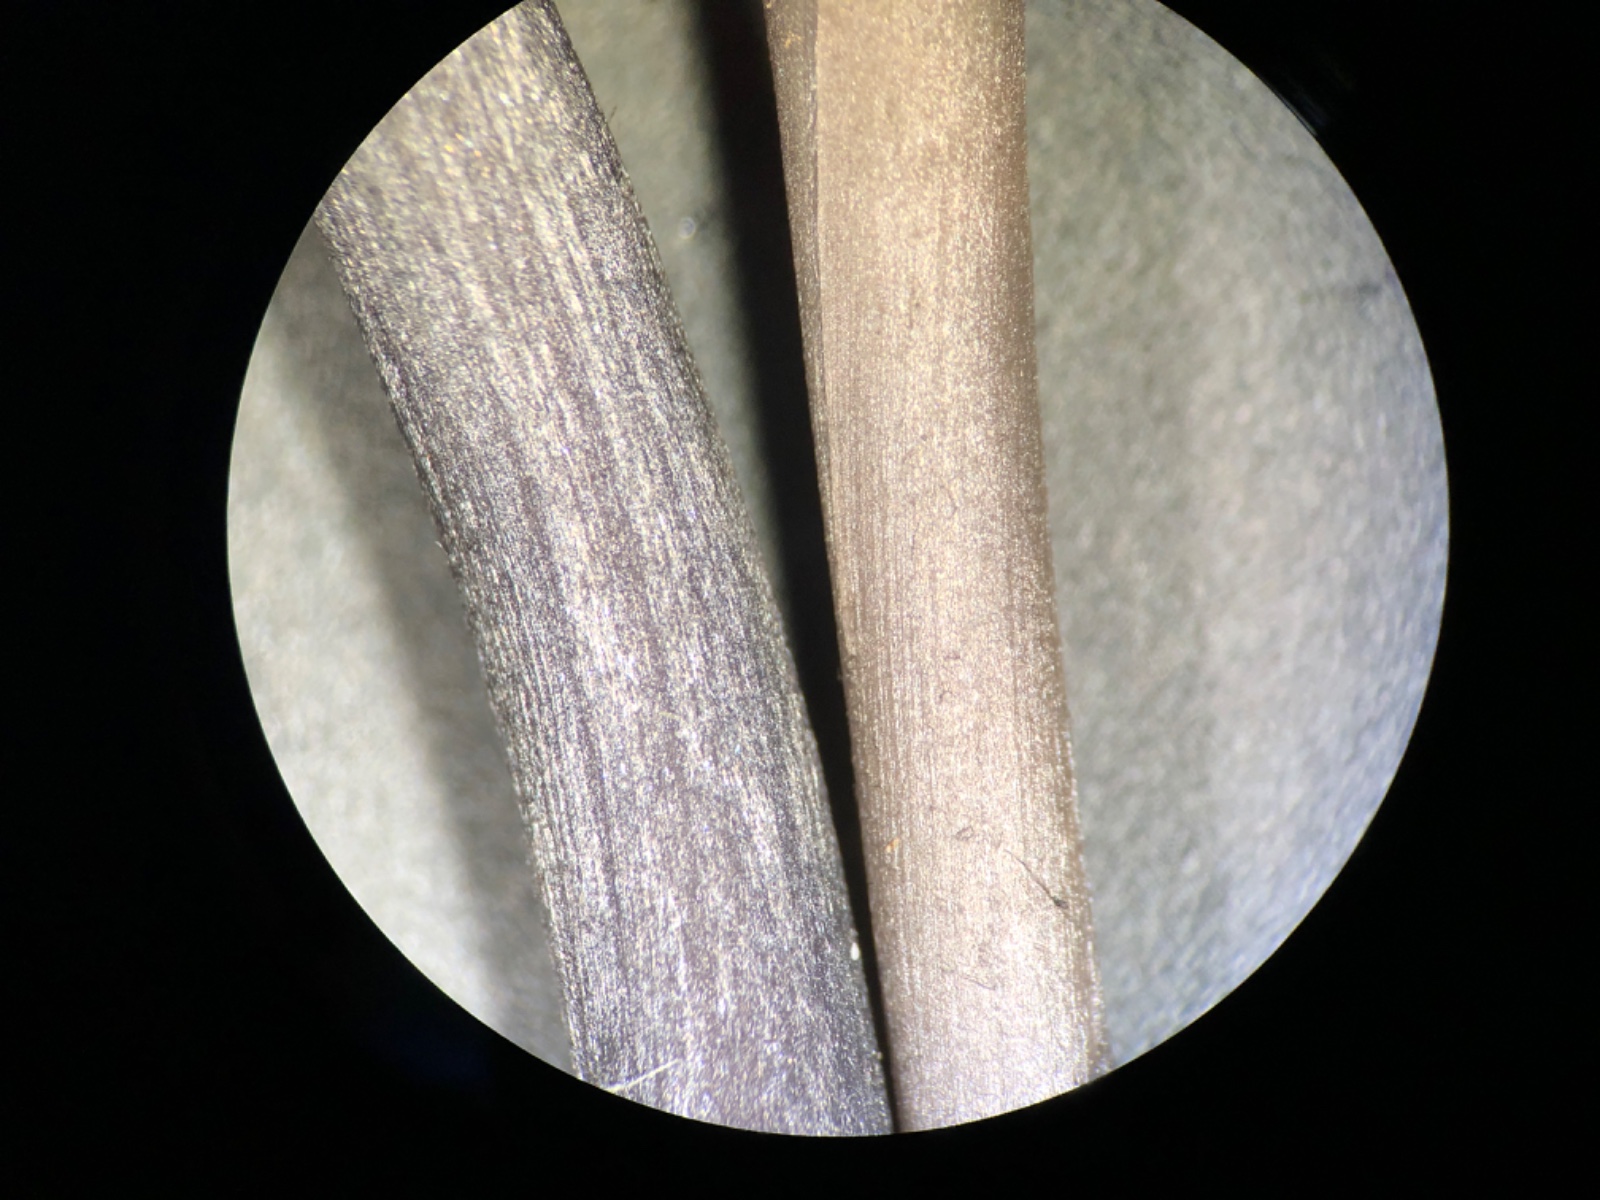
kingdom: Fungi
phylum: Basidiomycota
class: Agaricomycetes
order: Agaricales
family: Entolomataceae
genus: Entoloma
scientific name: Entoloma
